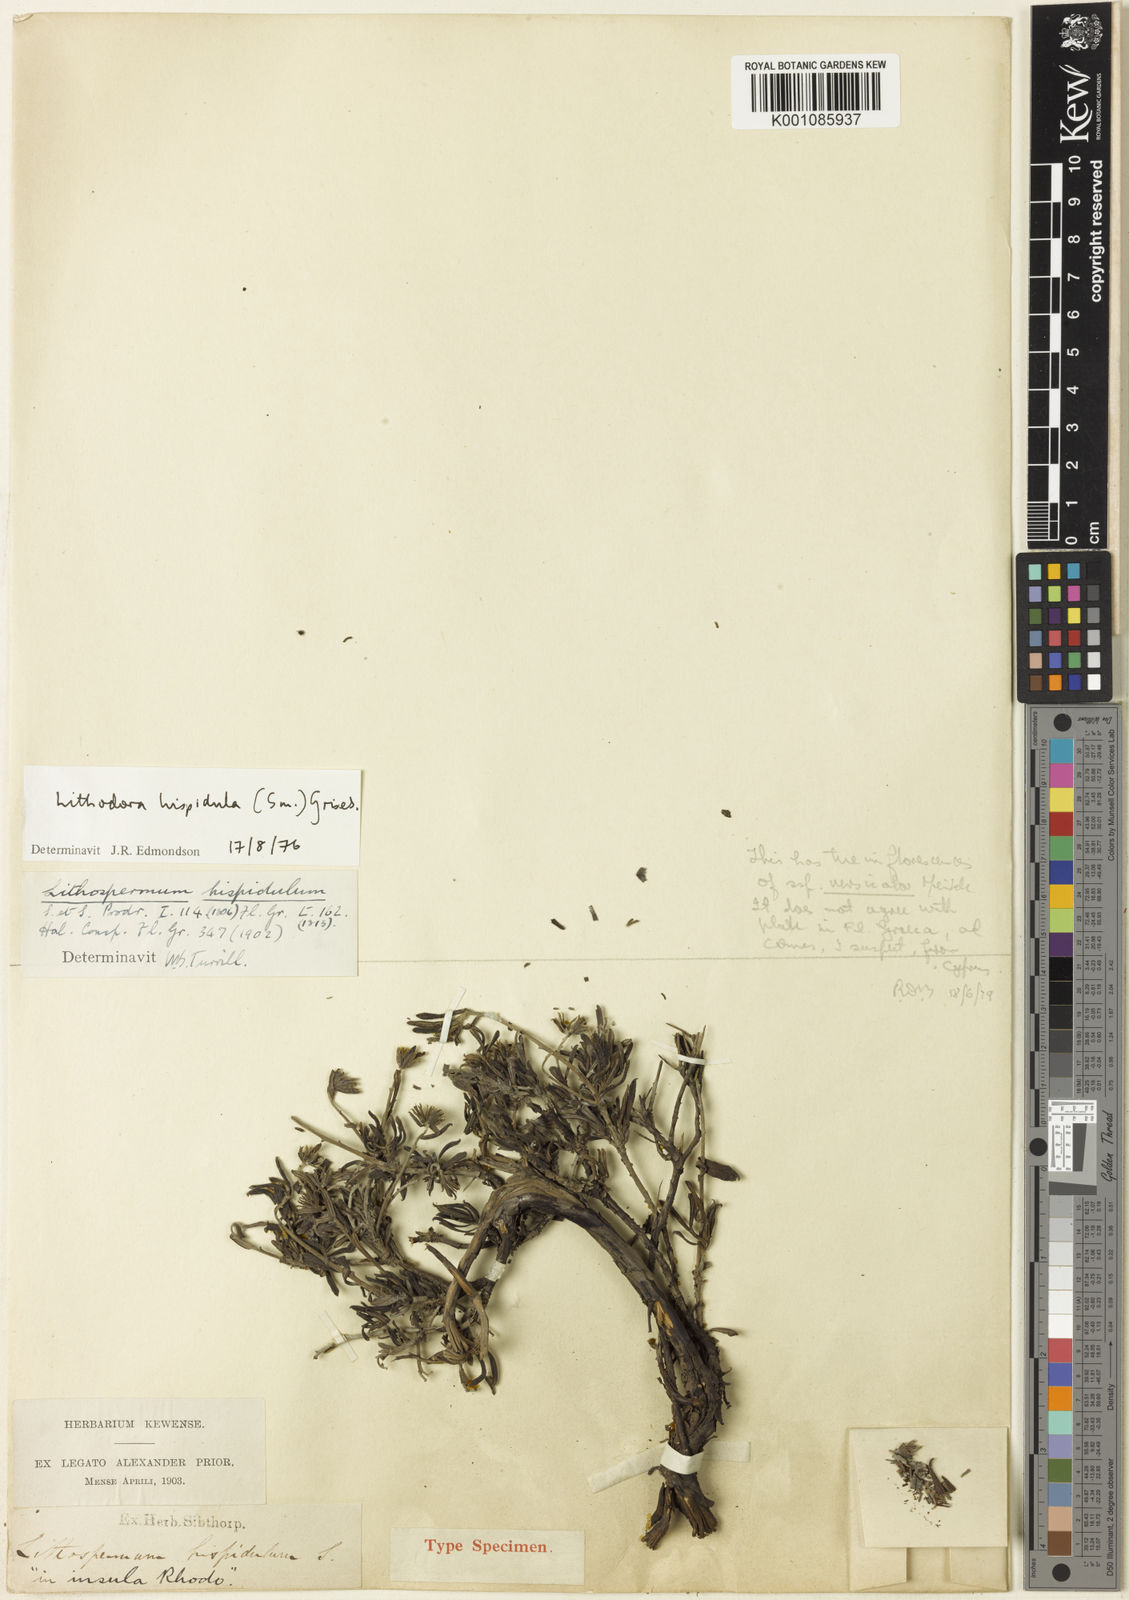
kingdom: Plantae
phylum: Tracheophyta
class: Magnoliopsida
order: Boraginales
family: Boraginaceae
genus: Lithodora
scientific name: Lithodora hispidula
